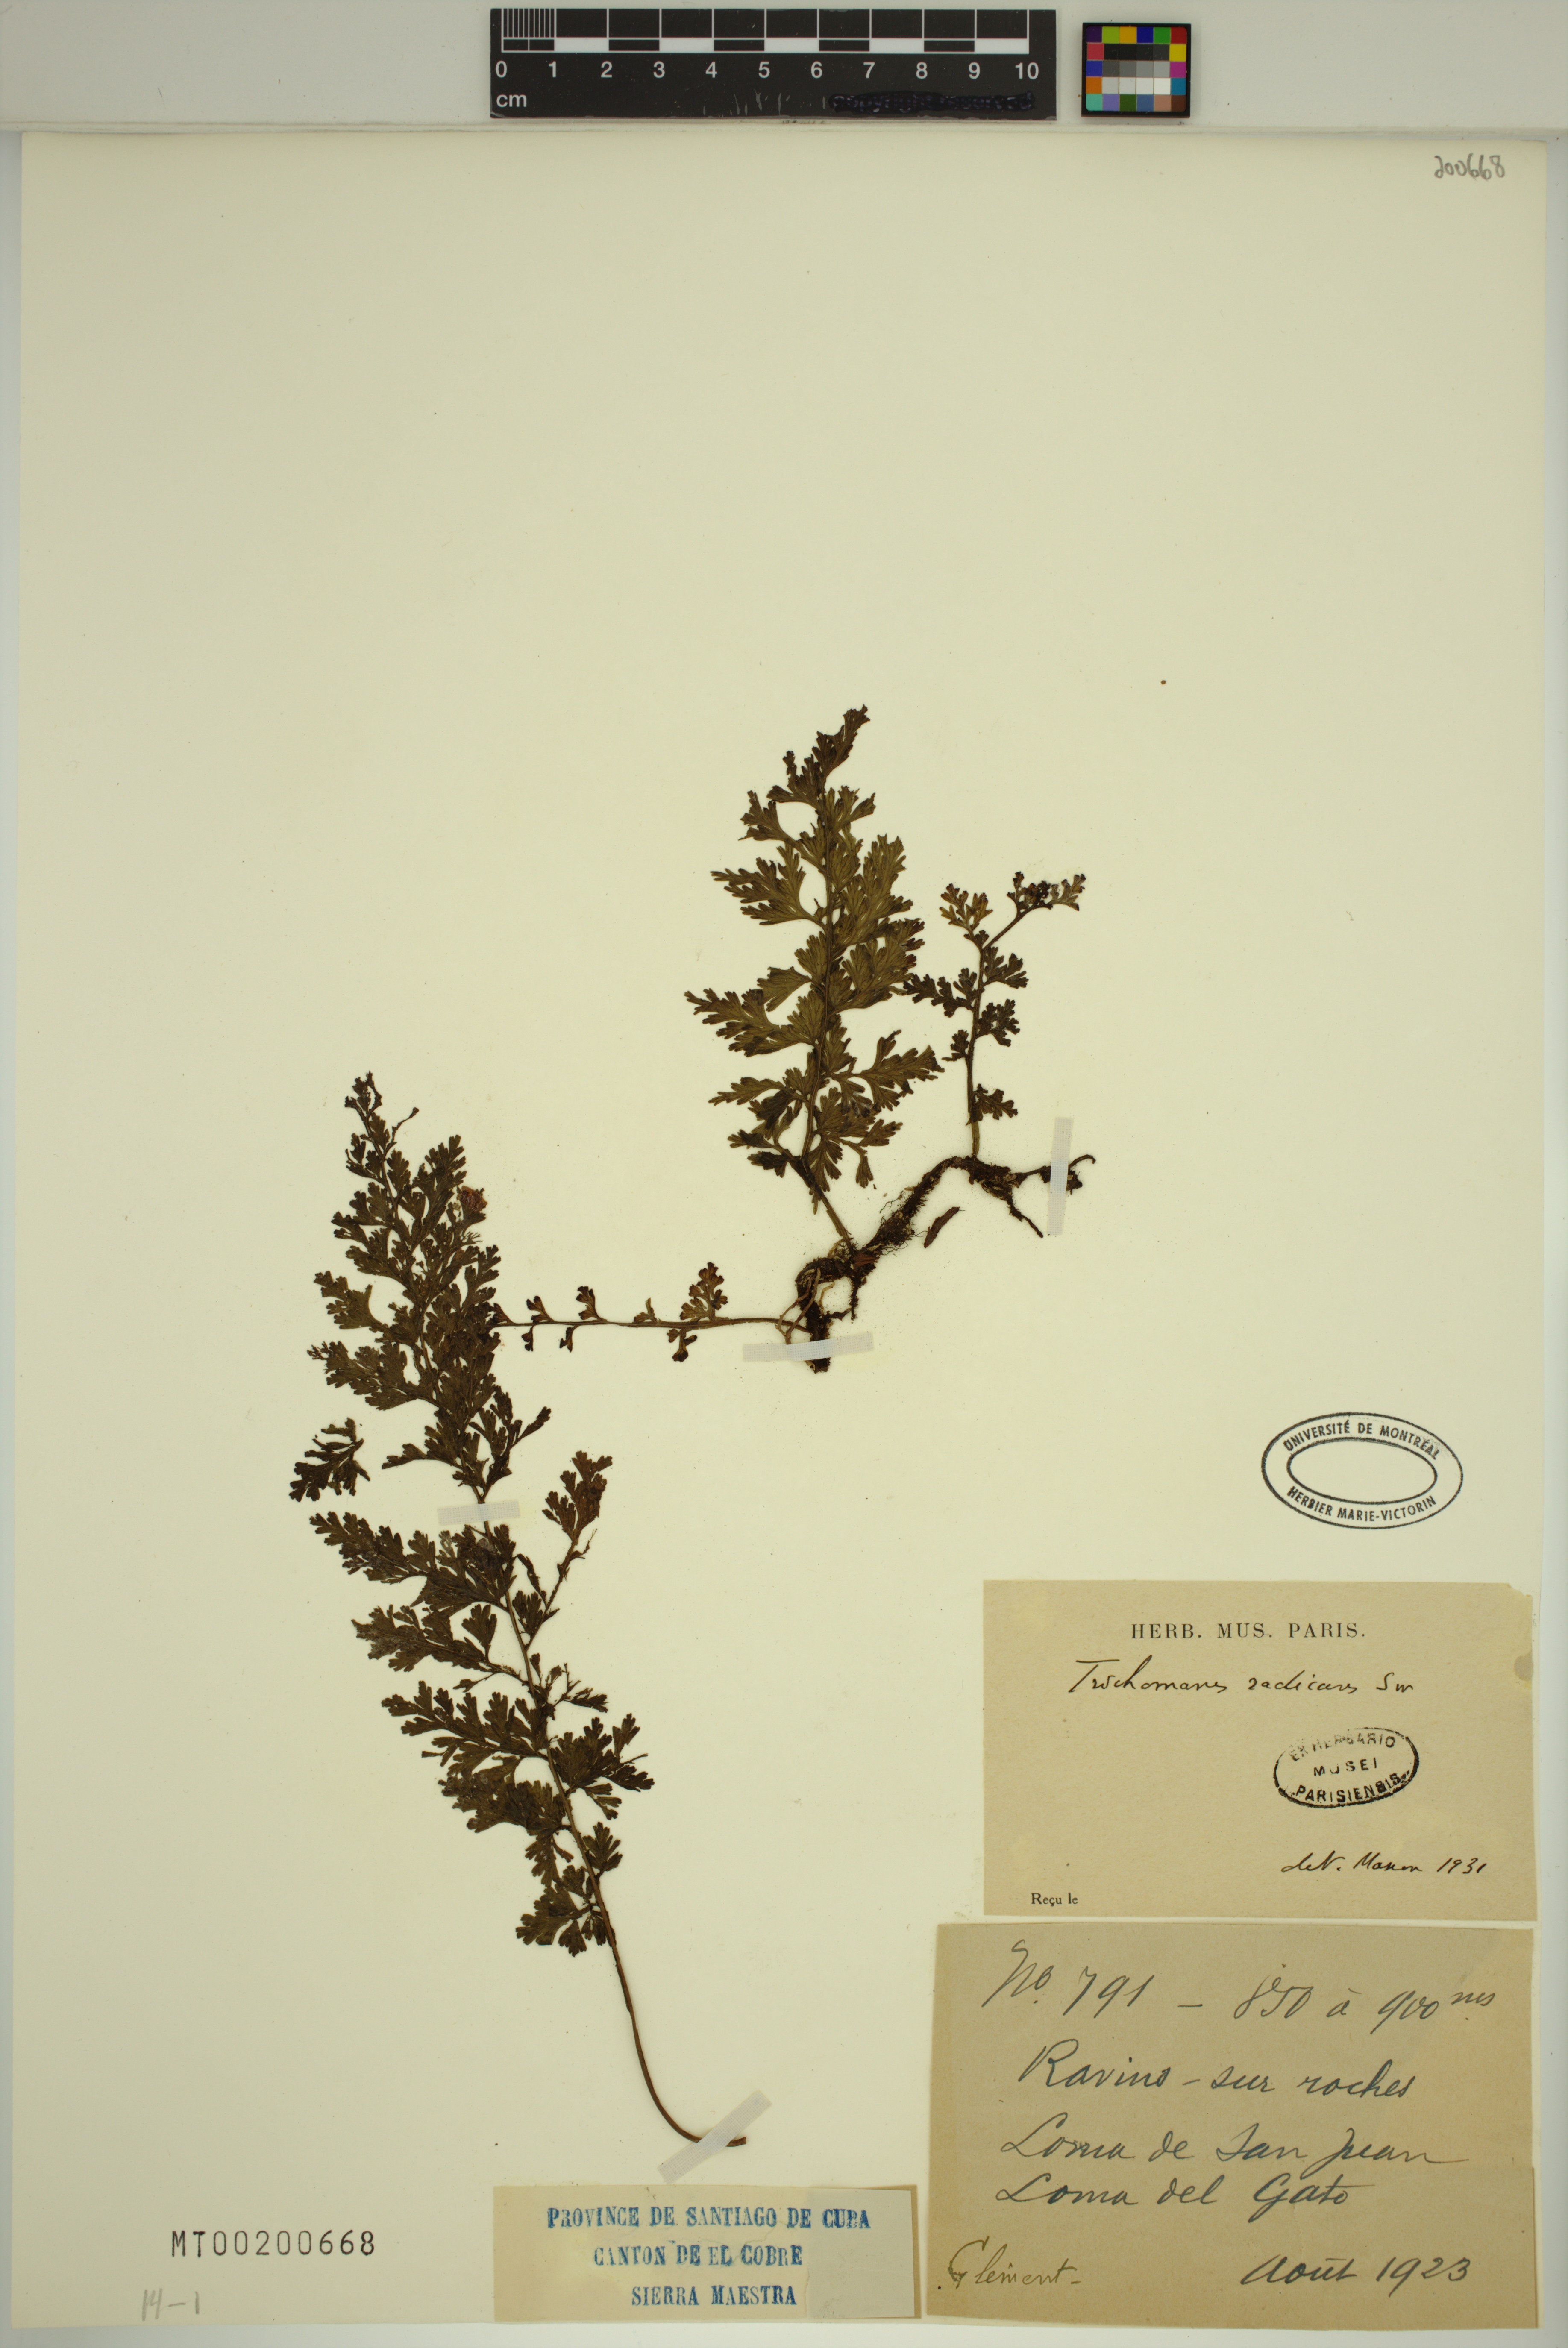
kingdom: Plantae
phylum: Tracheophyta
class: Polypodiopsida
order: Hymenophyllales
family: Hymenophyllaceae
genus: Vandenboschia
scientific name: Vandenboschia radicans
